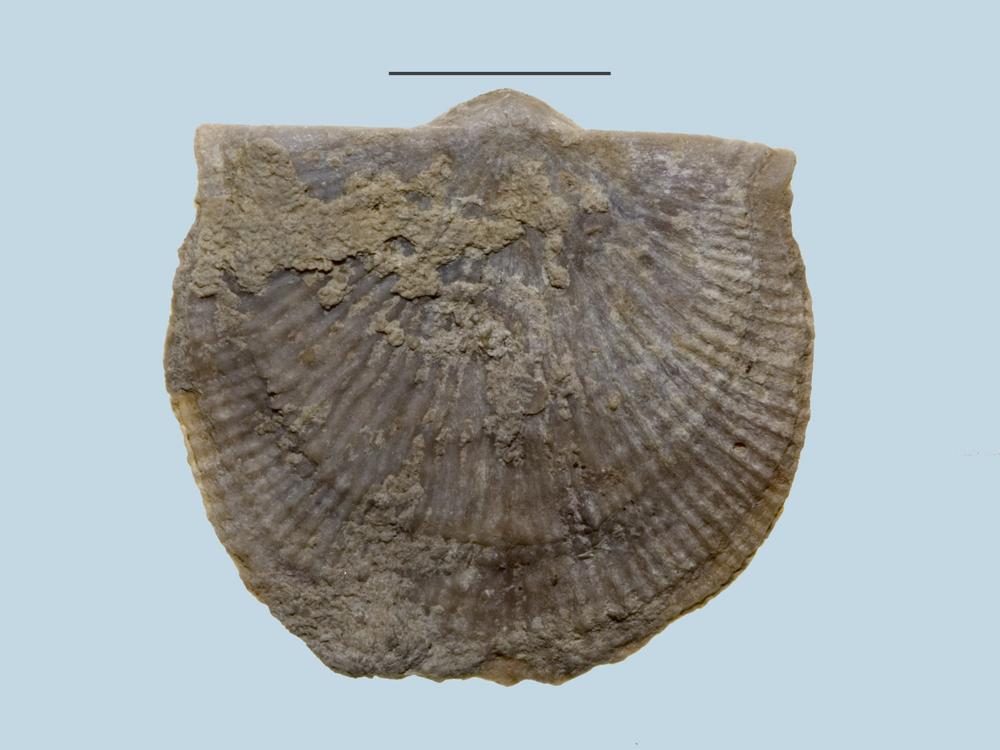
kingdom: Animalia
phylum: Brachiopoda
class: Rhynchonellata
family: Clitambonitidae
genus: Clitambonites
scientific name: Clitambonites maximus
